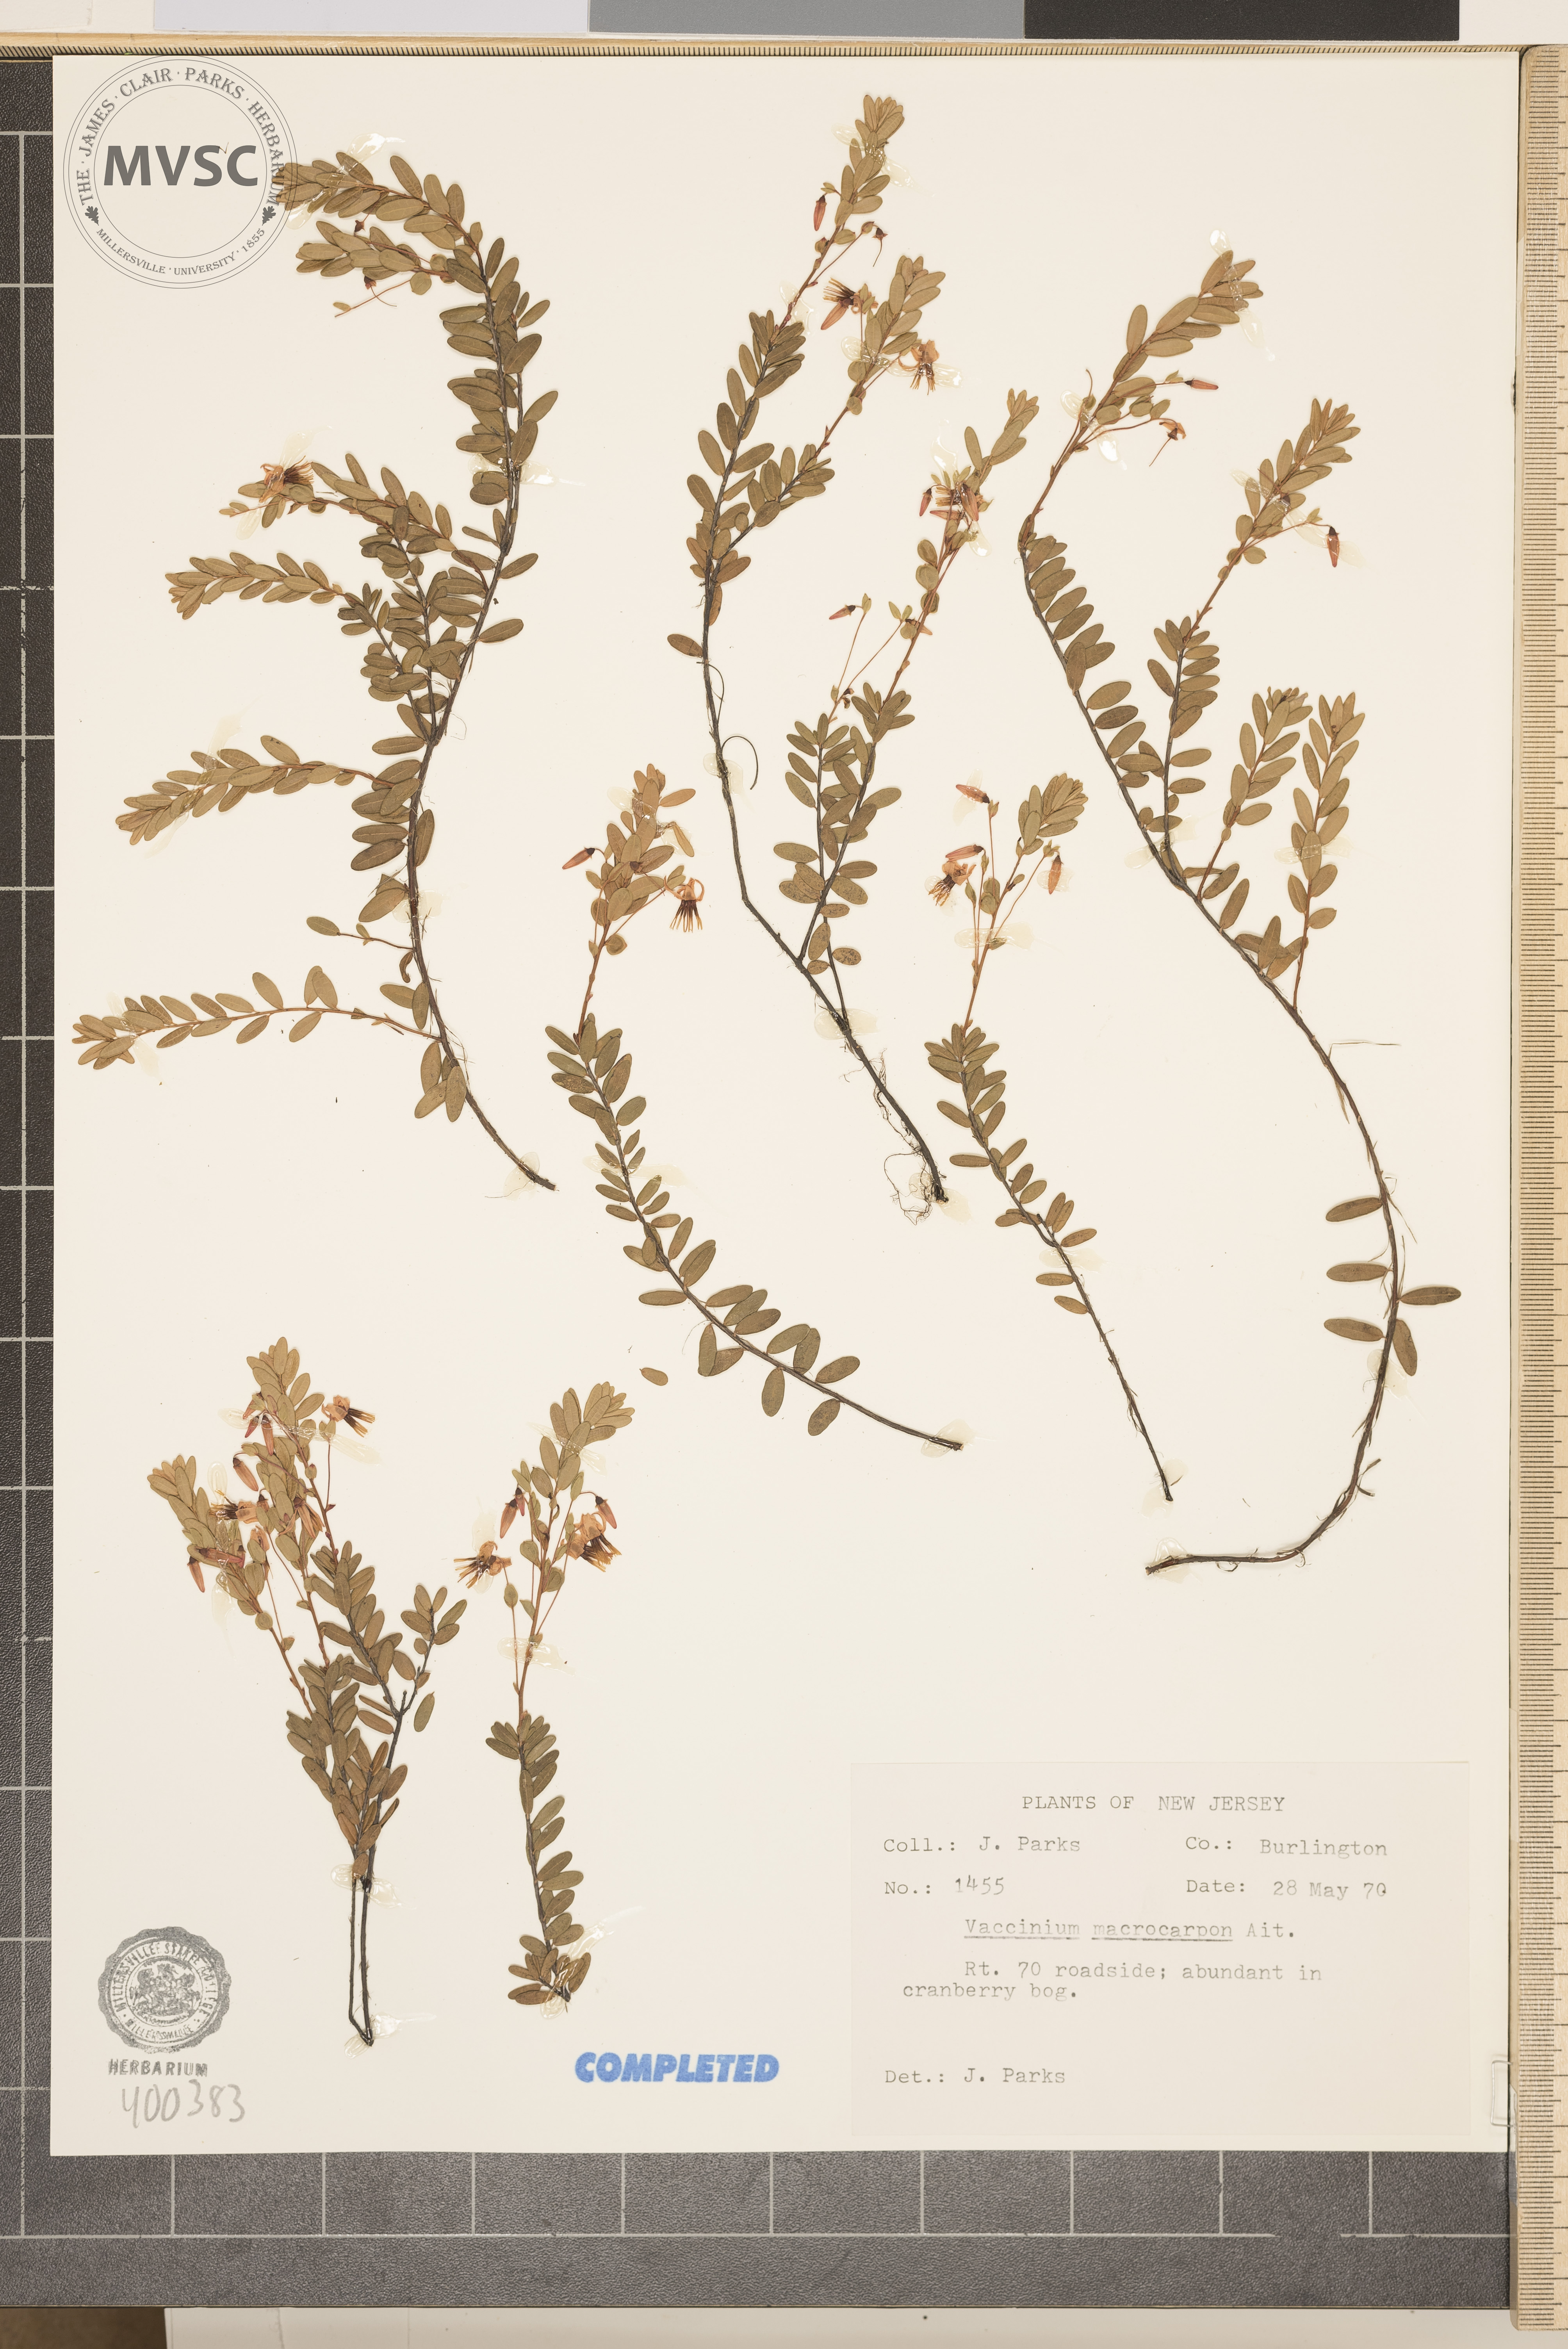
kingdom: Plantae
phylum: Tracheophyta
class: Magnoliopsida
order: Ericales
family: Ericaceae
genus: Vaccinium
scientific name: Vaccinium macrocarpon
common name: blueberry
